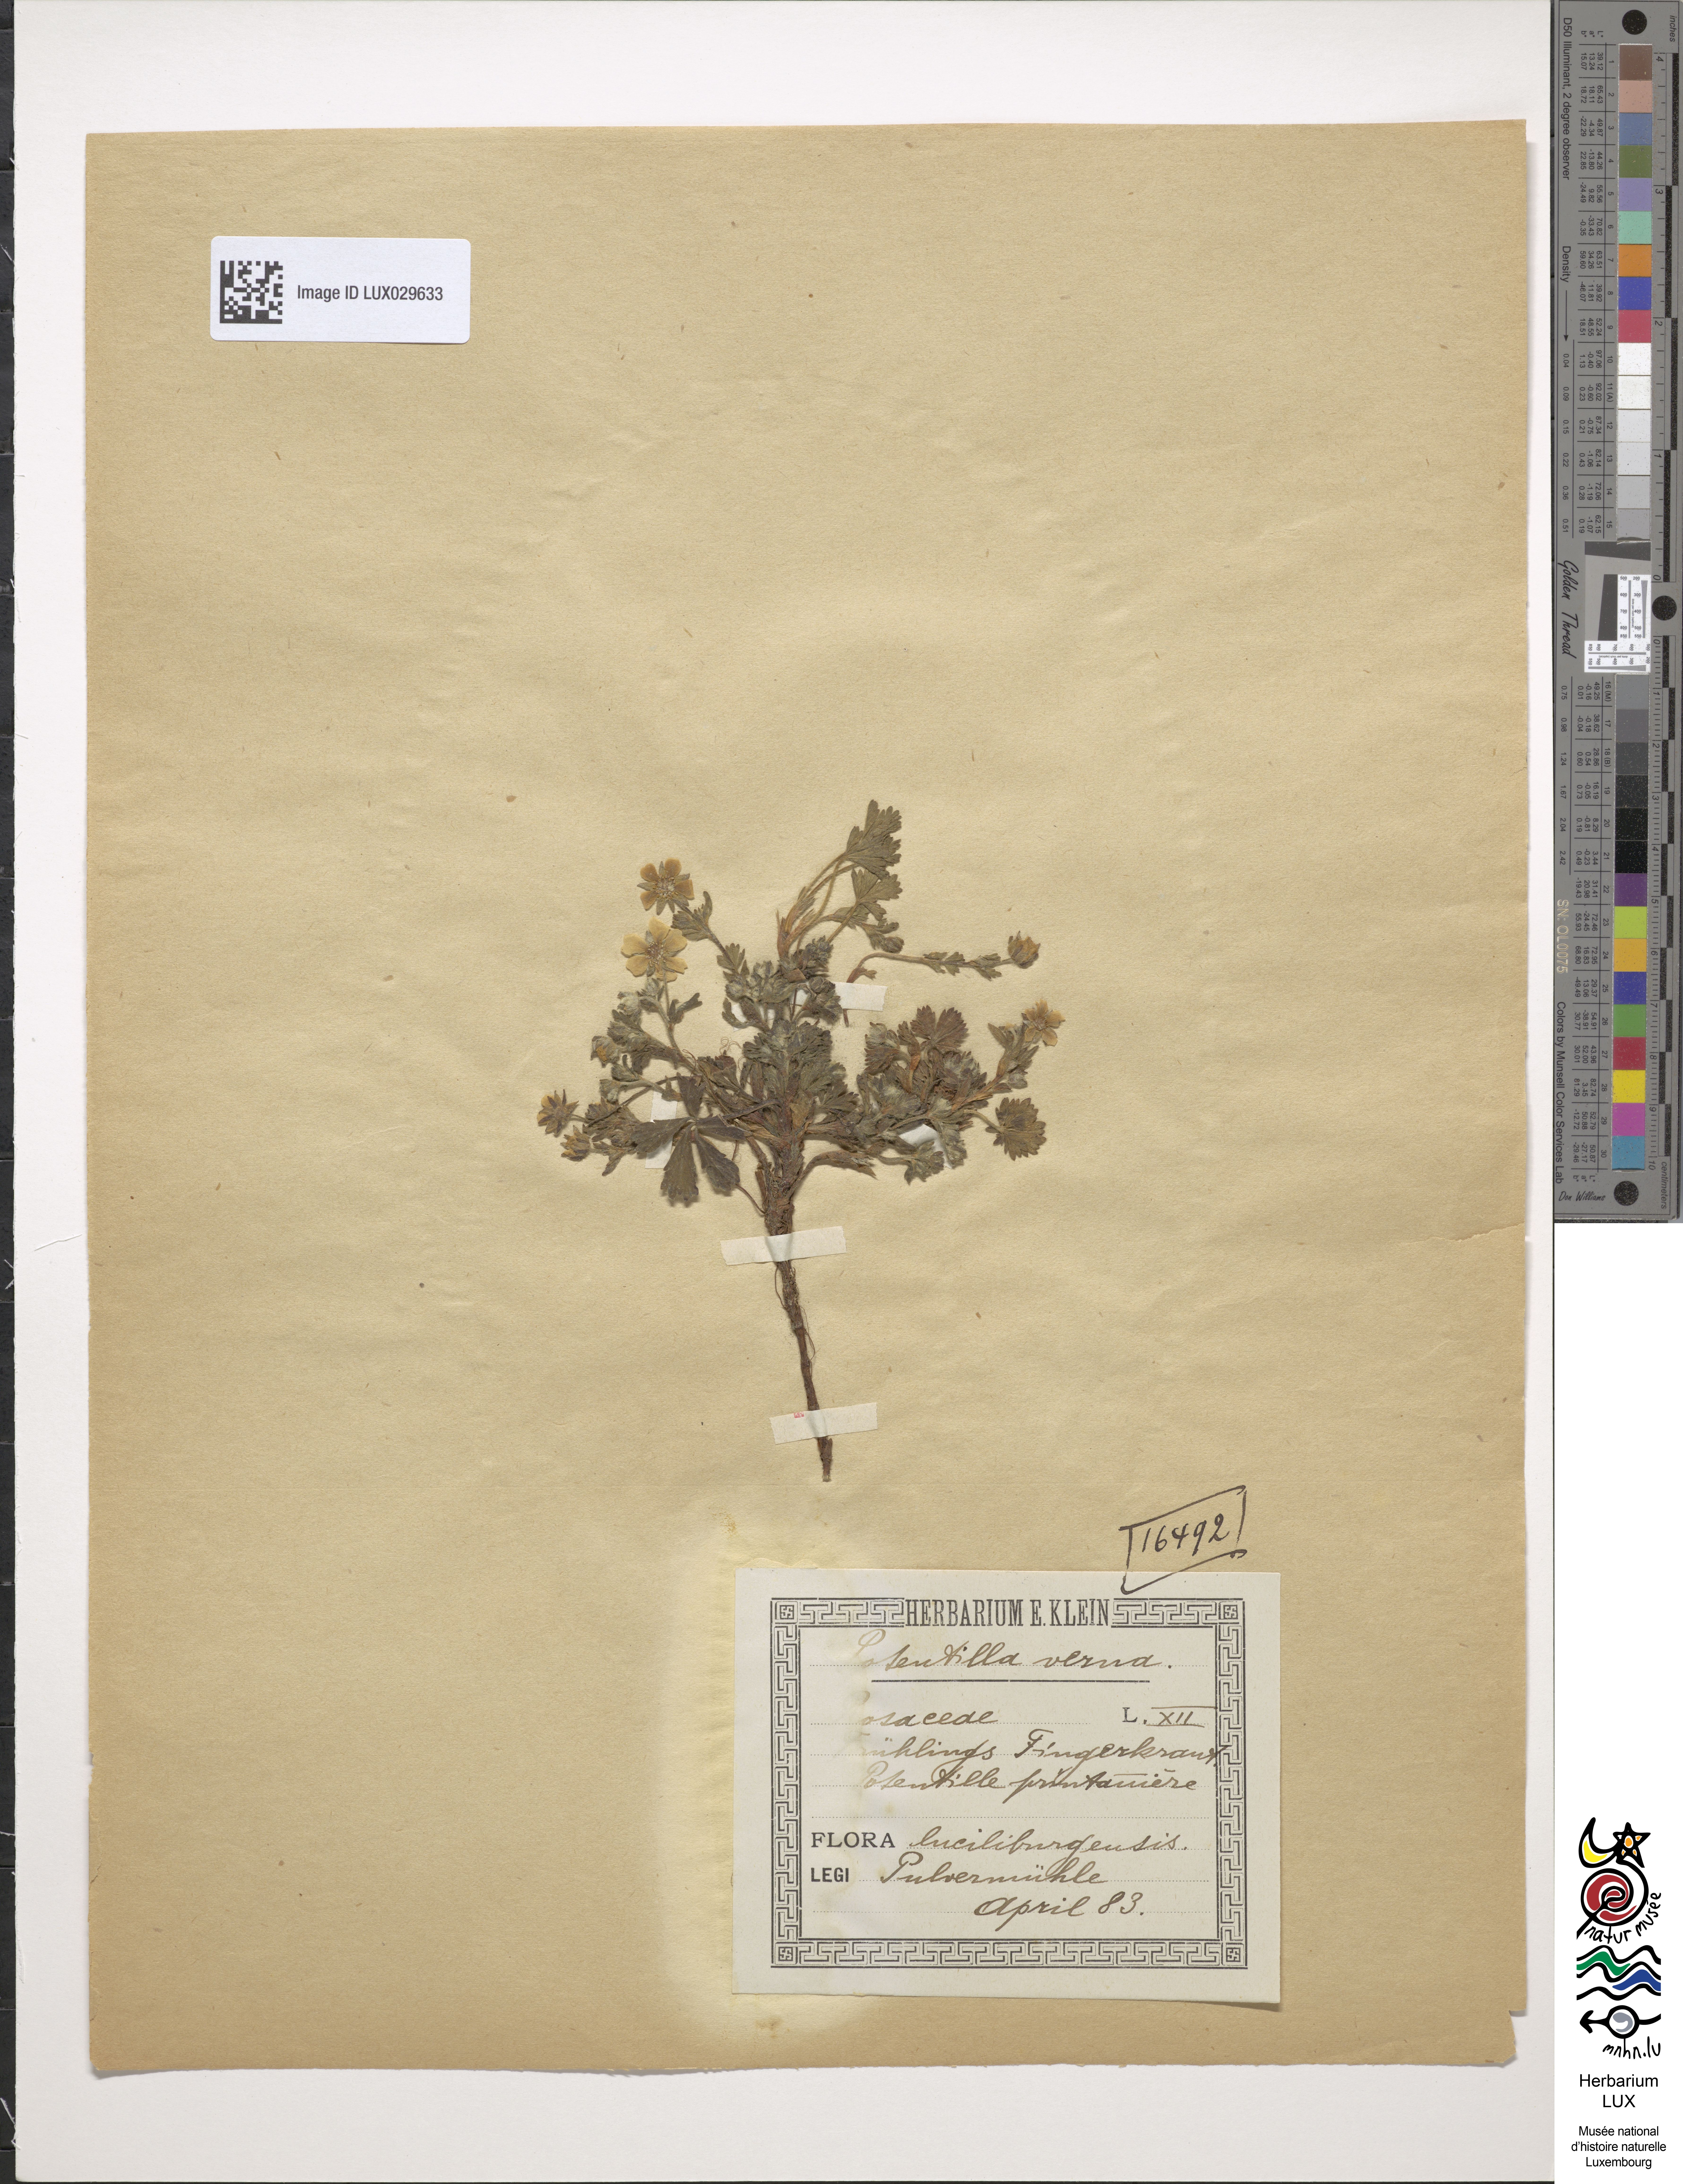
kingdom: Plantae
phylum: Tracheophyta
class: Magnoliopsida
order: Rosales
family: Rosaceae
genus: Potentilla
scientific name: Potentilla verna
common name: Spring cinquefoil
